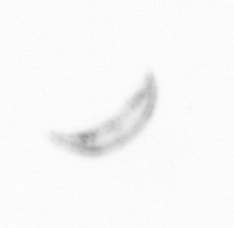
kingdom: Chromista
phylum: Ochrophyta
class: Bacillariophyceae
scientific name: Bacillariophyceae
